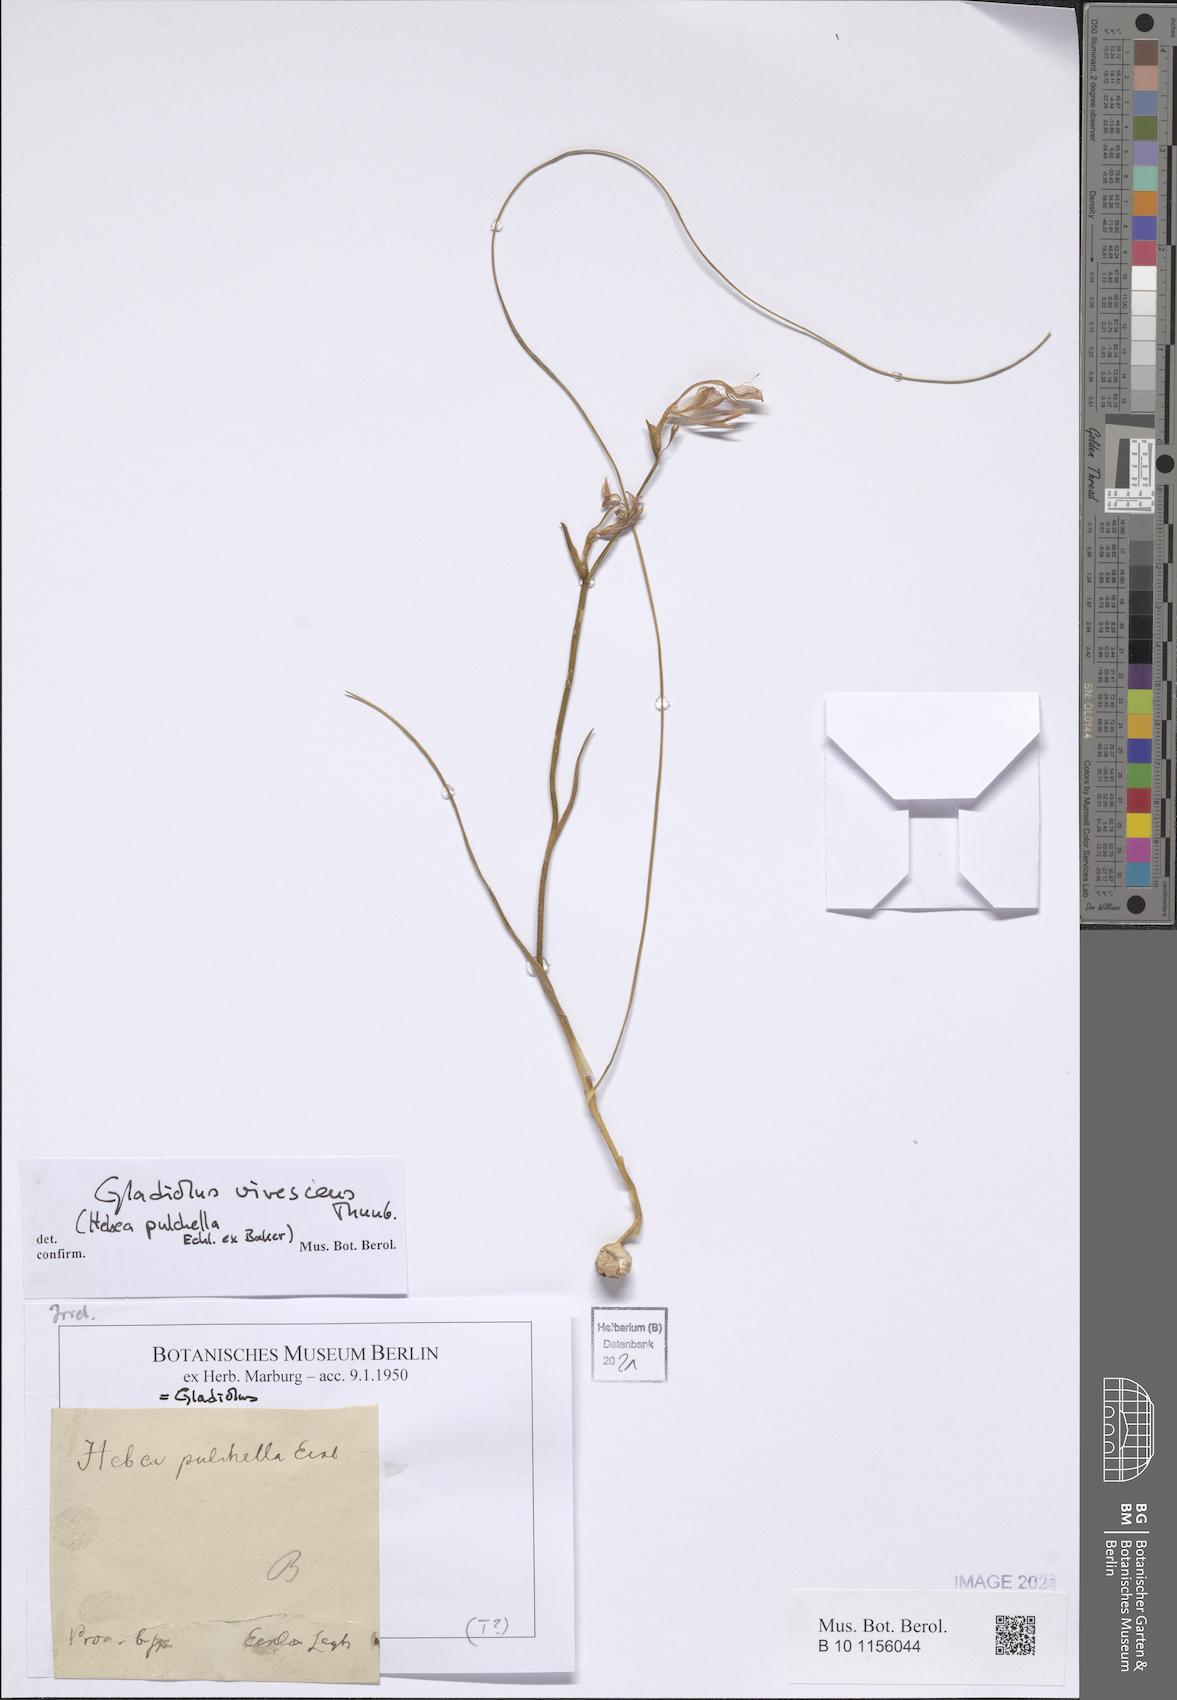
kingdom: Plantae
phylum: Tracheophyta
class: Liliopsida
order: Asparagales
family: Iridaceae
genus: Gladiolus
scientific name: Gladiolus virescens
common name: Yellow kalkoentjie
